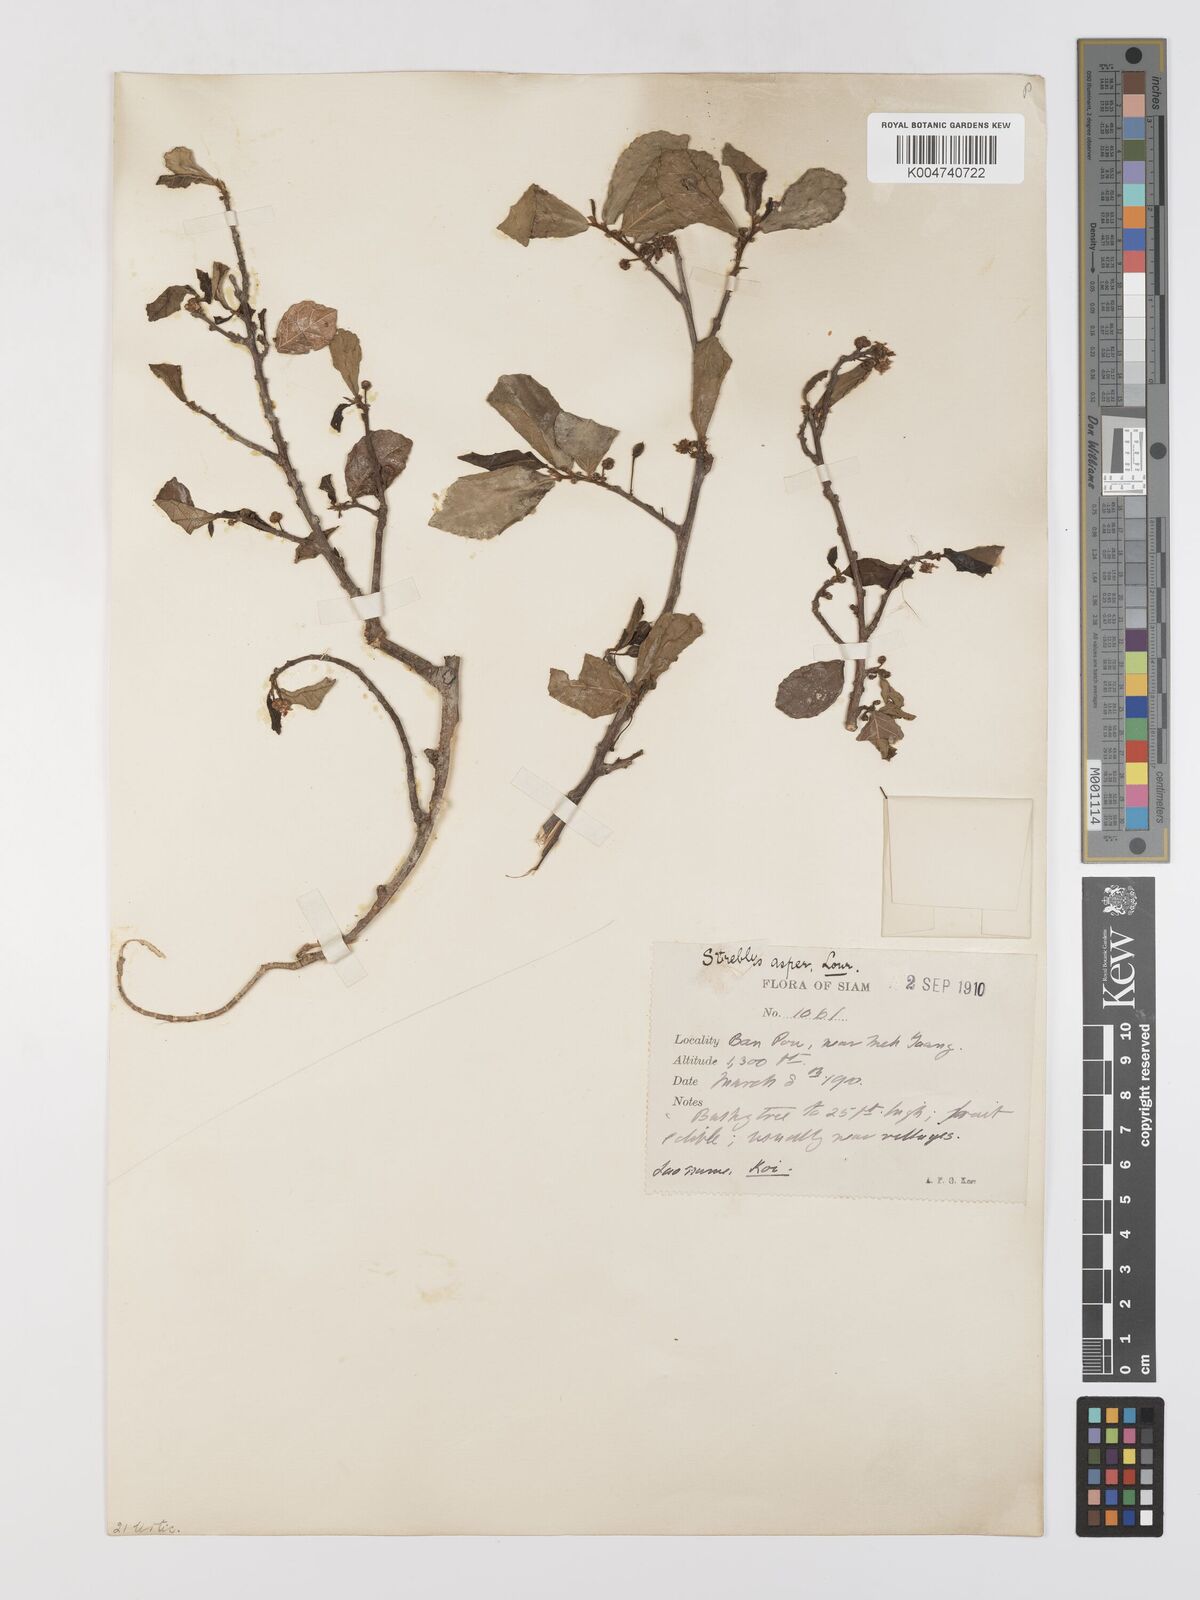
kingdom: Plantae
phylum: Tracheophyta
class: Magnoliopsida
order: Rosales
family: Moraceae
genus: Streblus
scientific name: Streblus asper
